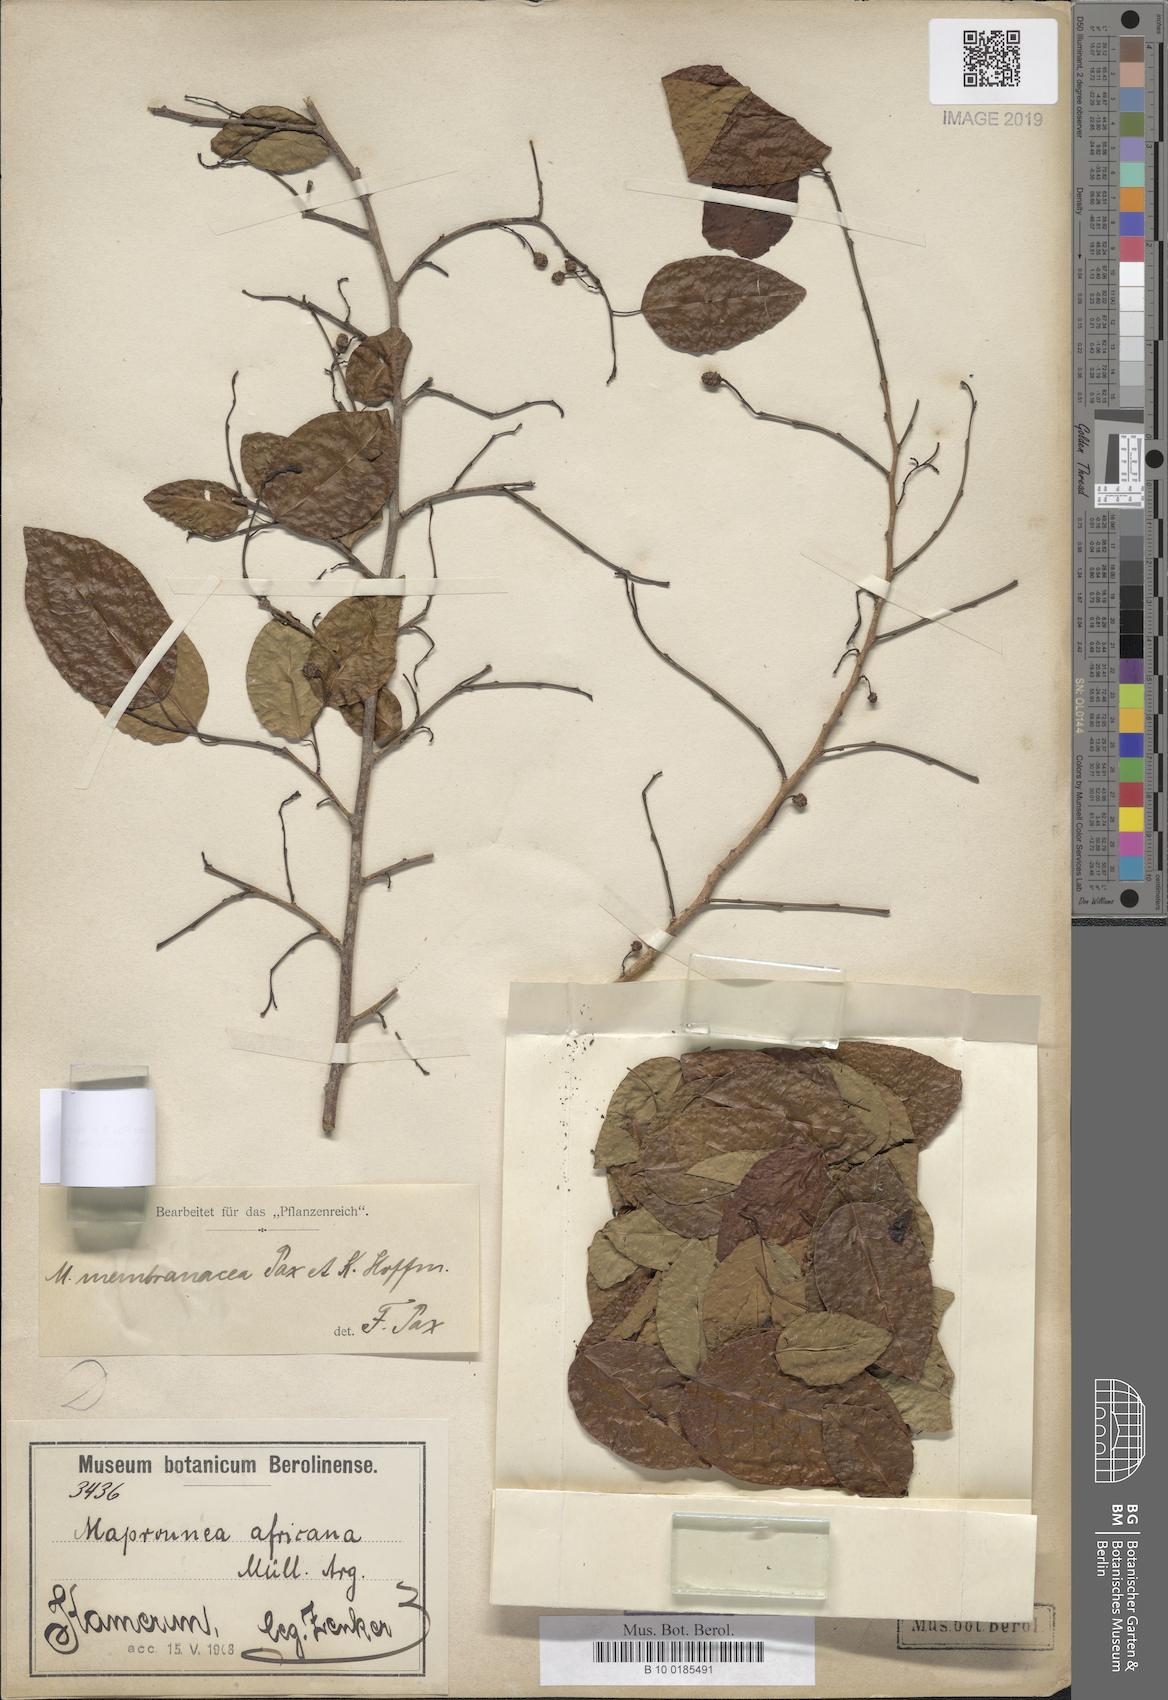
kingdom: Plantae
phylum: Tracheophyta
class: Magnoliopsida
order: Malpighiales
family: Euphorbiaceae
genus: Maprounea
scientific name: Maprounea membranacea
